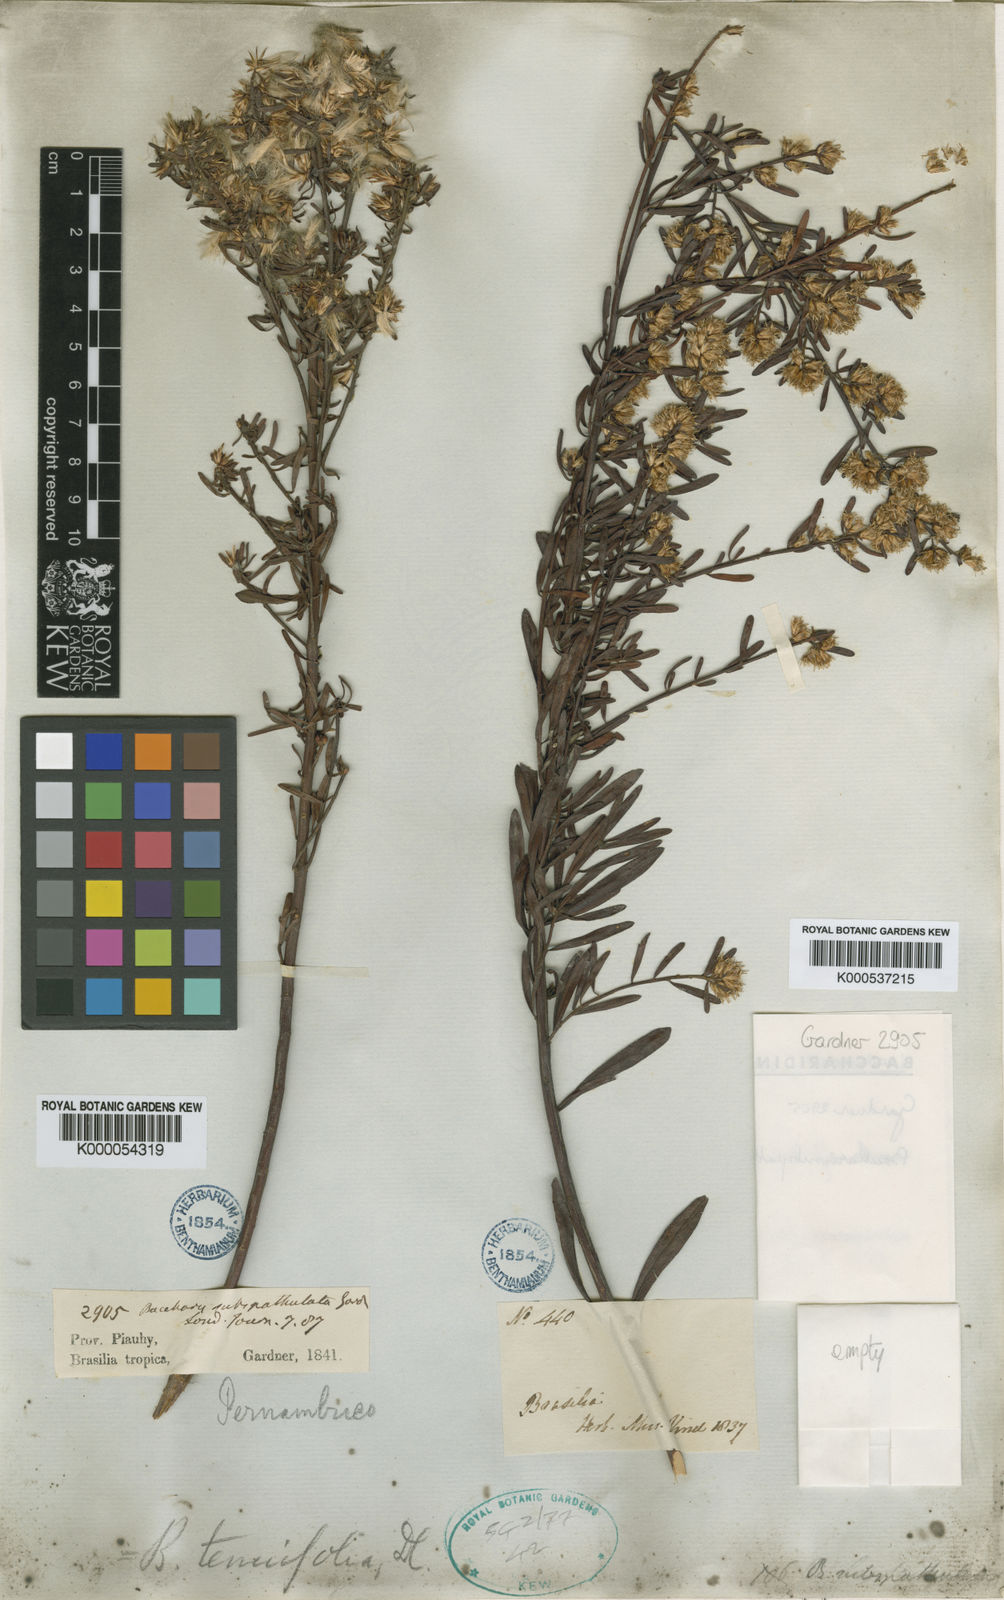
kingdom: Plantae
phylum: Tracheophyta
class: Magnoliopsida
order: Asterales
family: Asteraceae
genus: Baccharis
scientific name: Baccharis linearifolia
